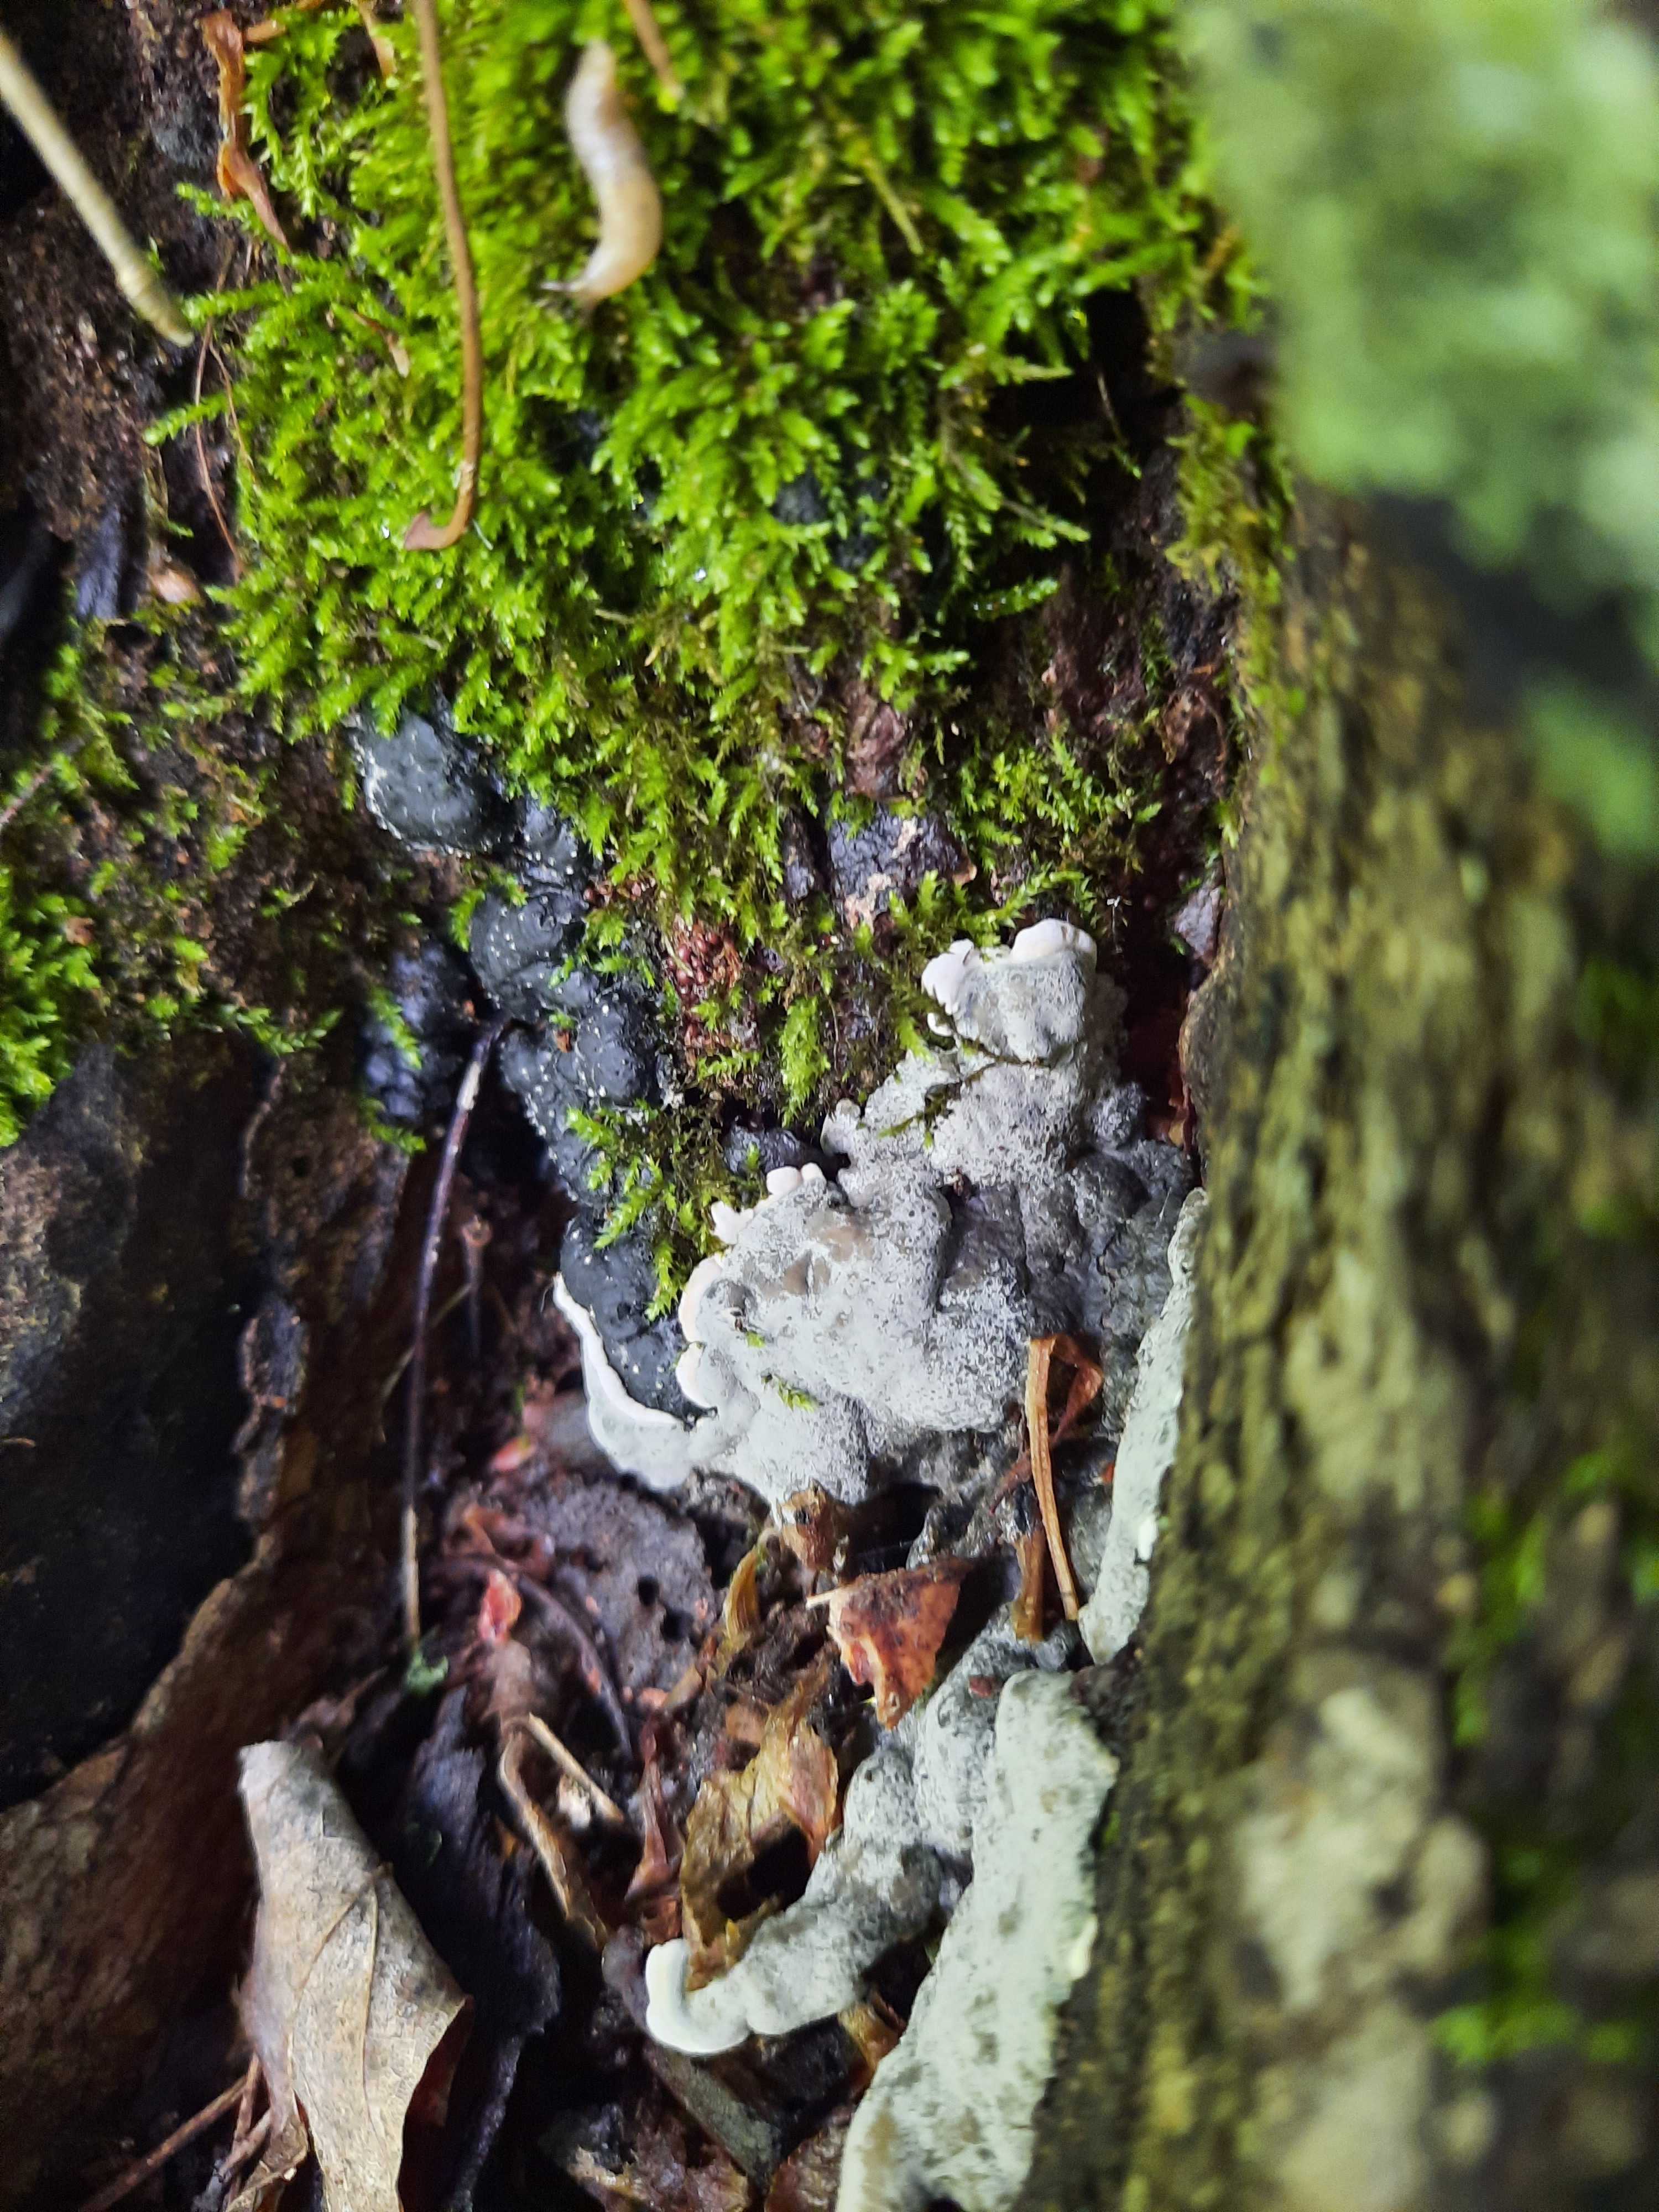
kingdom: Fungi
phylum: Ascomycota
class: Sordariomycetes
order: Xylariales
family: Xylariaceae
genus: Kretzschmaria
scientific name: Kretzschmaria deusta
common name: stor kulsvamp
